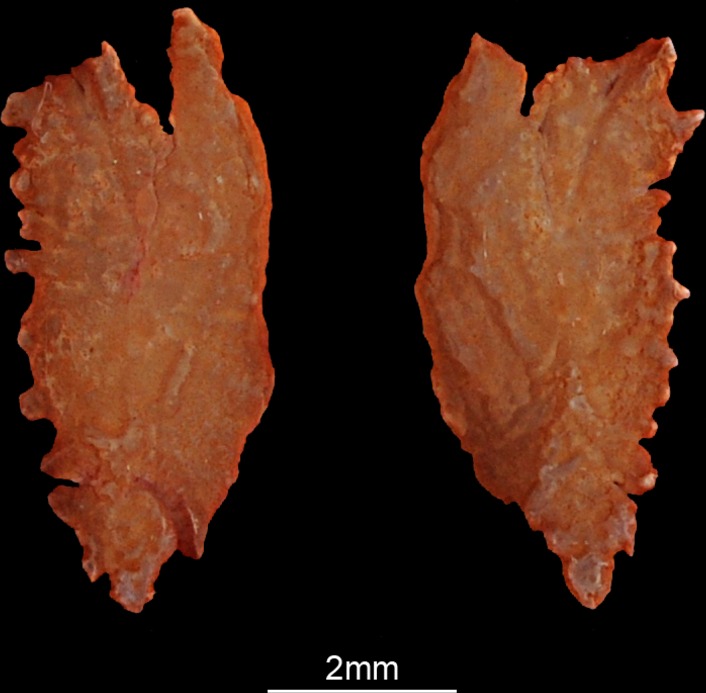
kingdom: Animalia
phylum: Chordata
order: Perciformes
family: Labridae
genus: Cheilinus
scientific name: Cheilinus lunulatus
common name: Broomtail wrasse
